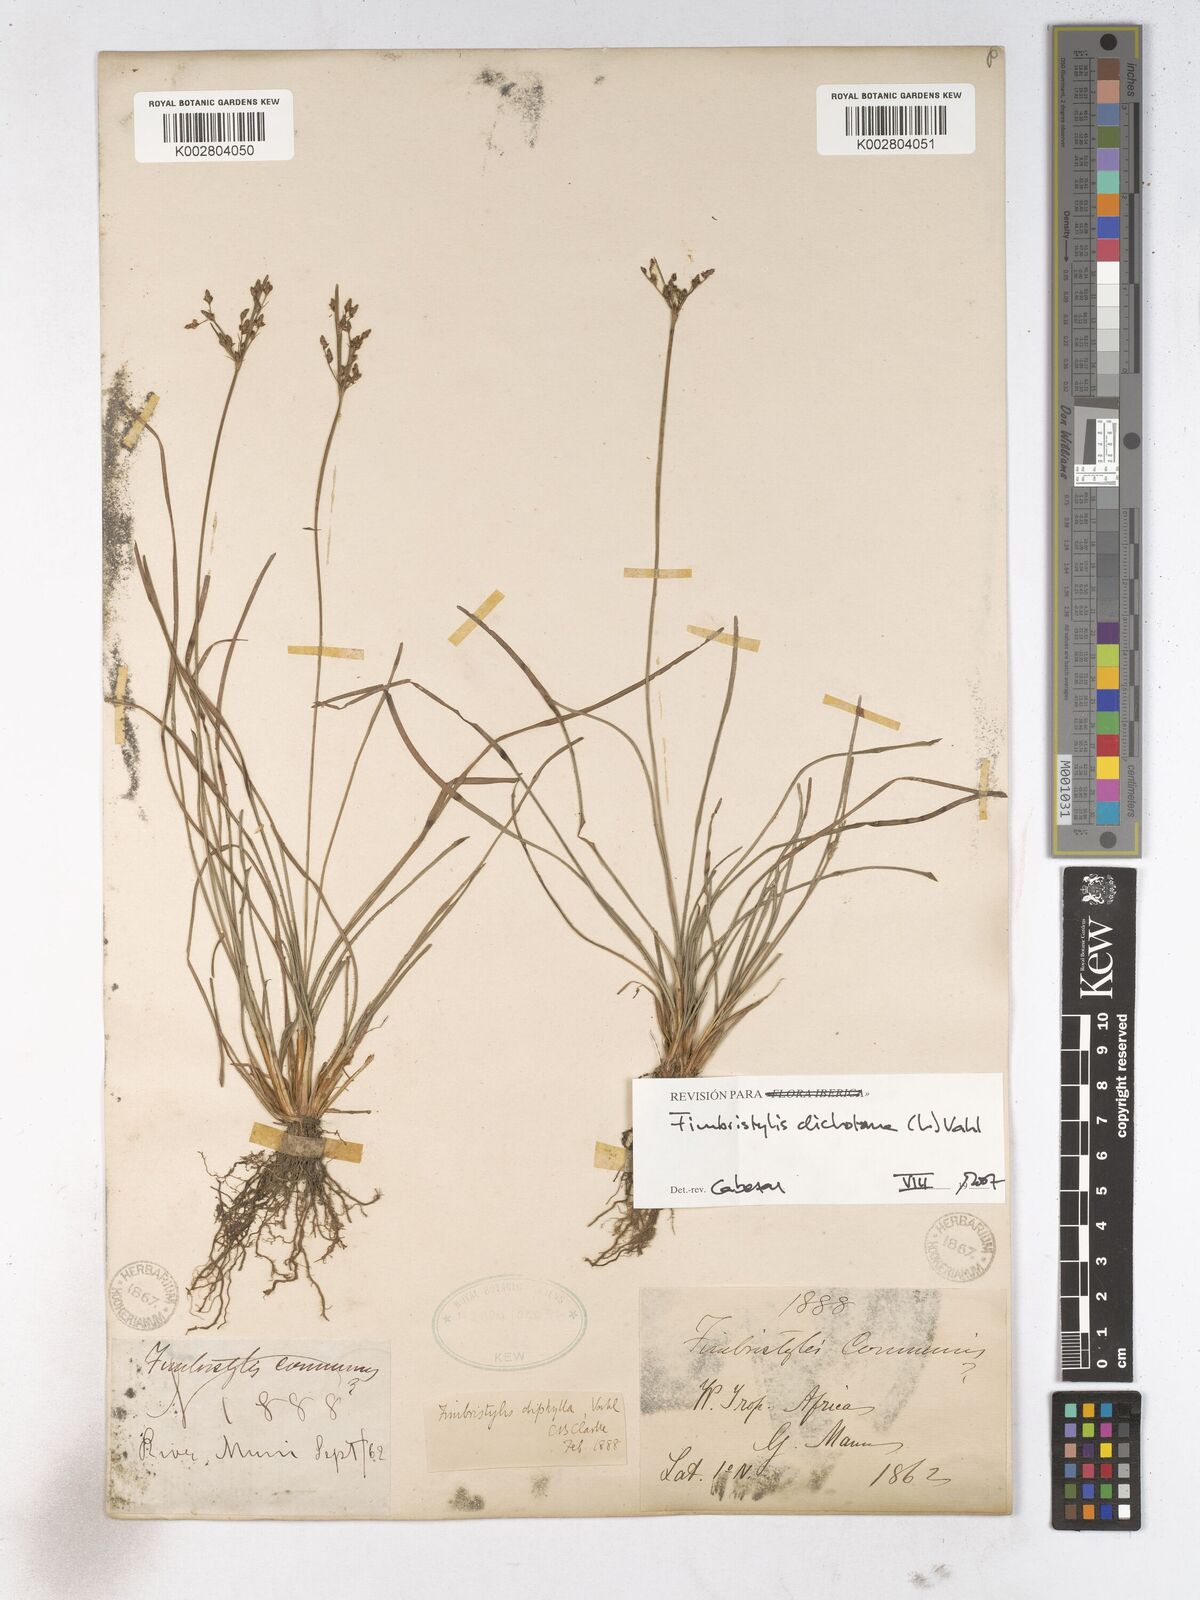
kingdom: Plantae
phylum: Tracheophyta
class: Liliopsida
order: Poales
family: Cyperaceae
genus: Fimbristylis
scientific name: Fimbristylis dichotoma
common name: Forked fimbry
